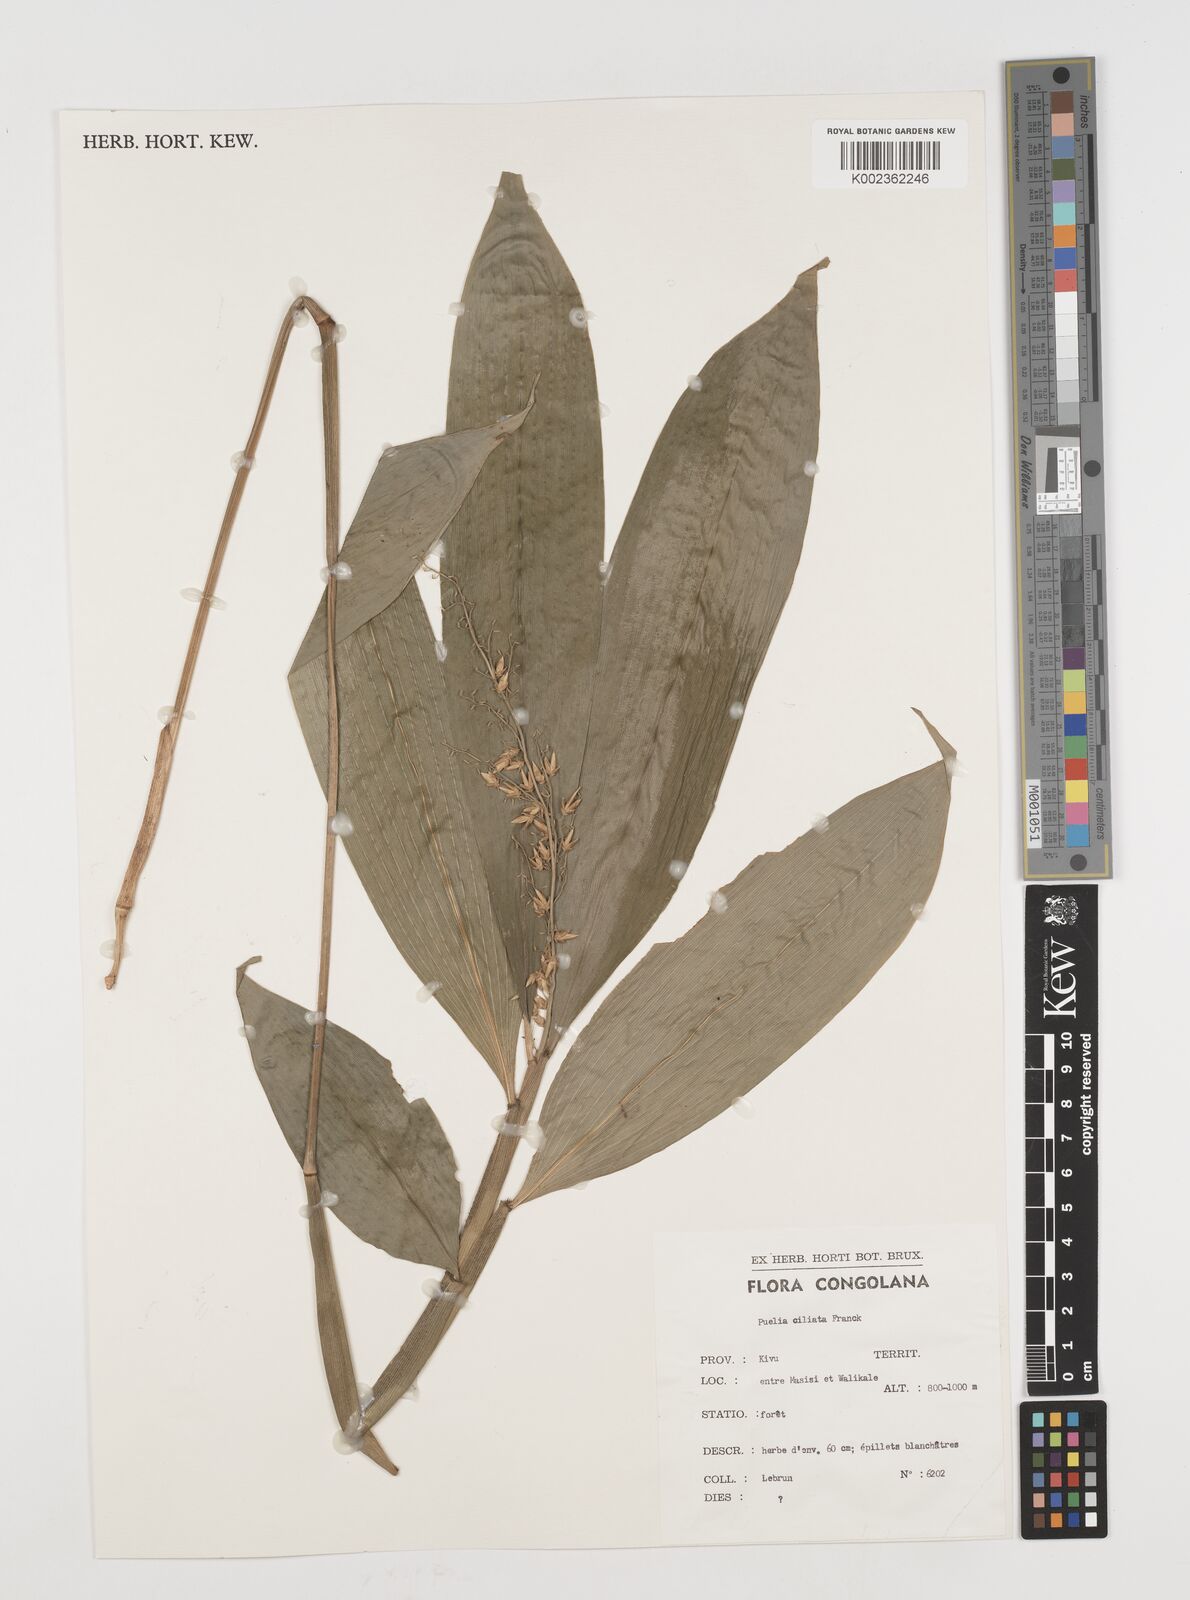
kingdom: Plantae
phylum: Tracheophyta
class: Liliopsida
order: Poales
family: Poaceae
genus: Puelia
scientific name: Puelia olyriformis
